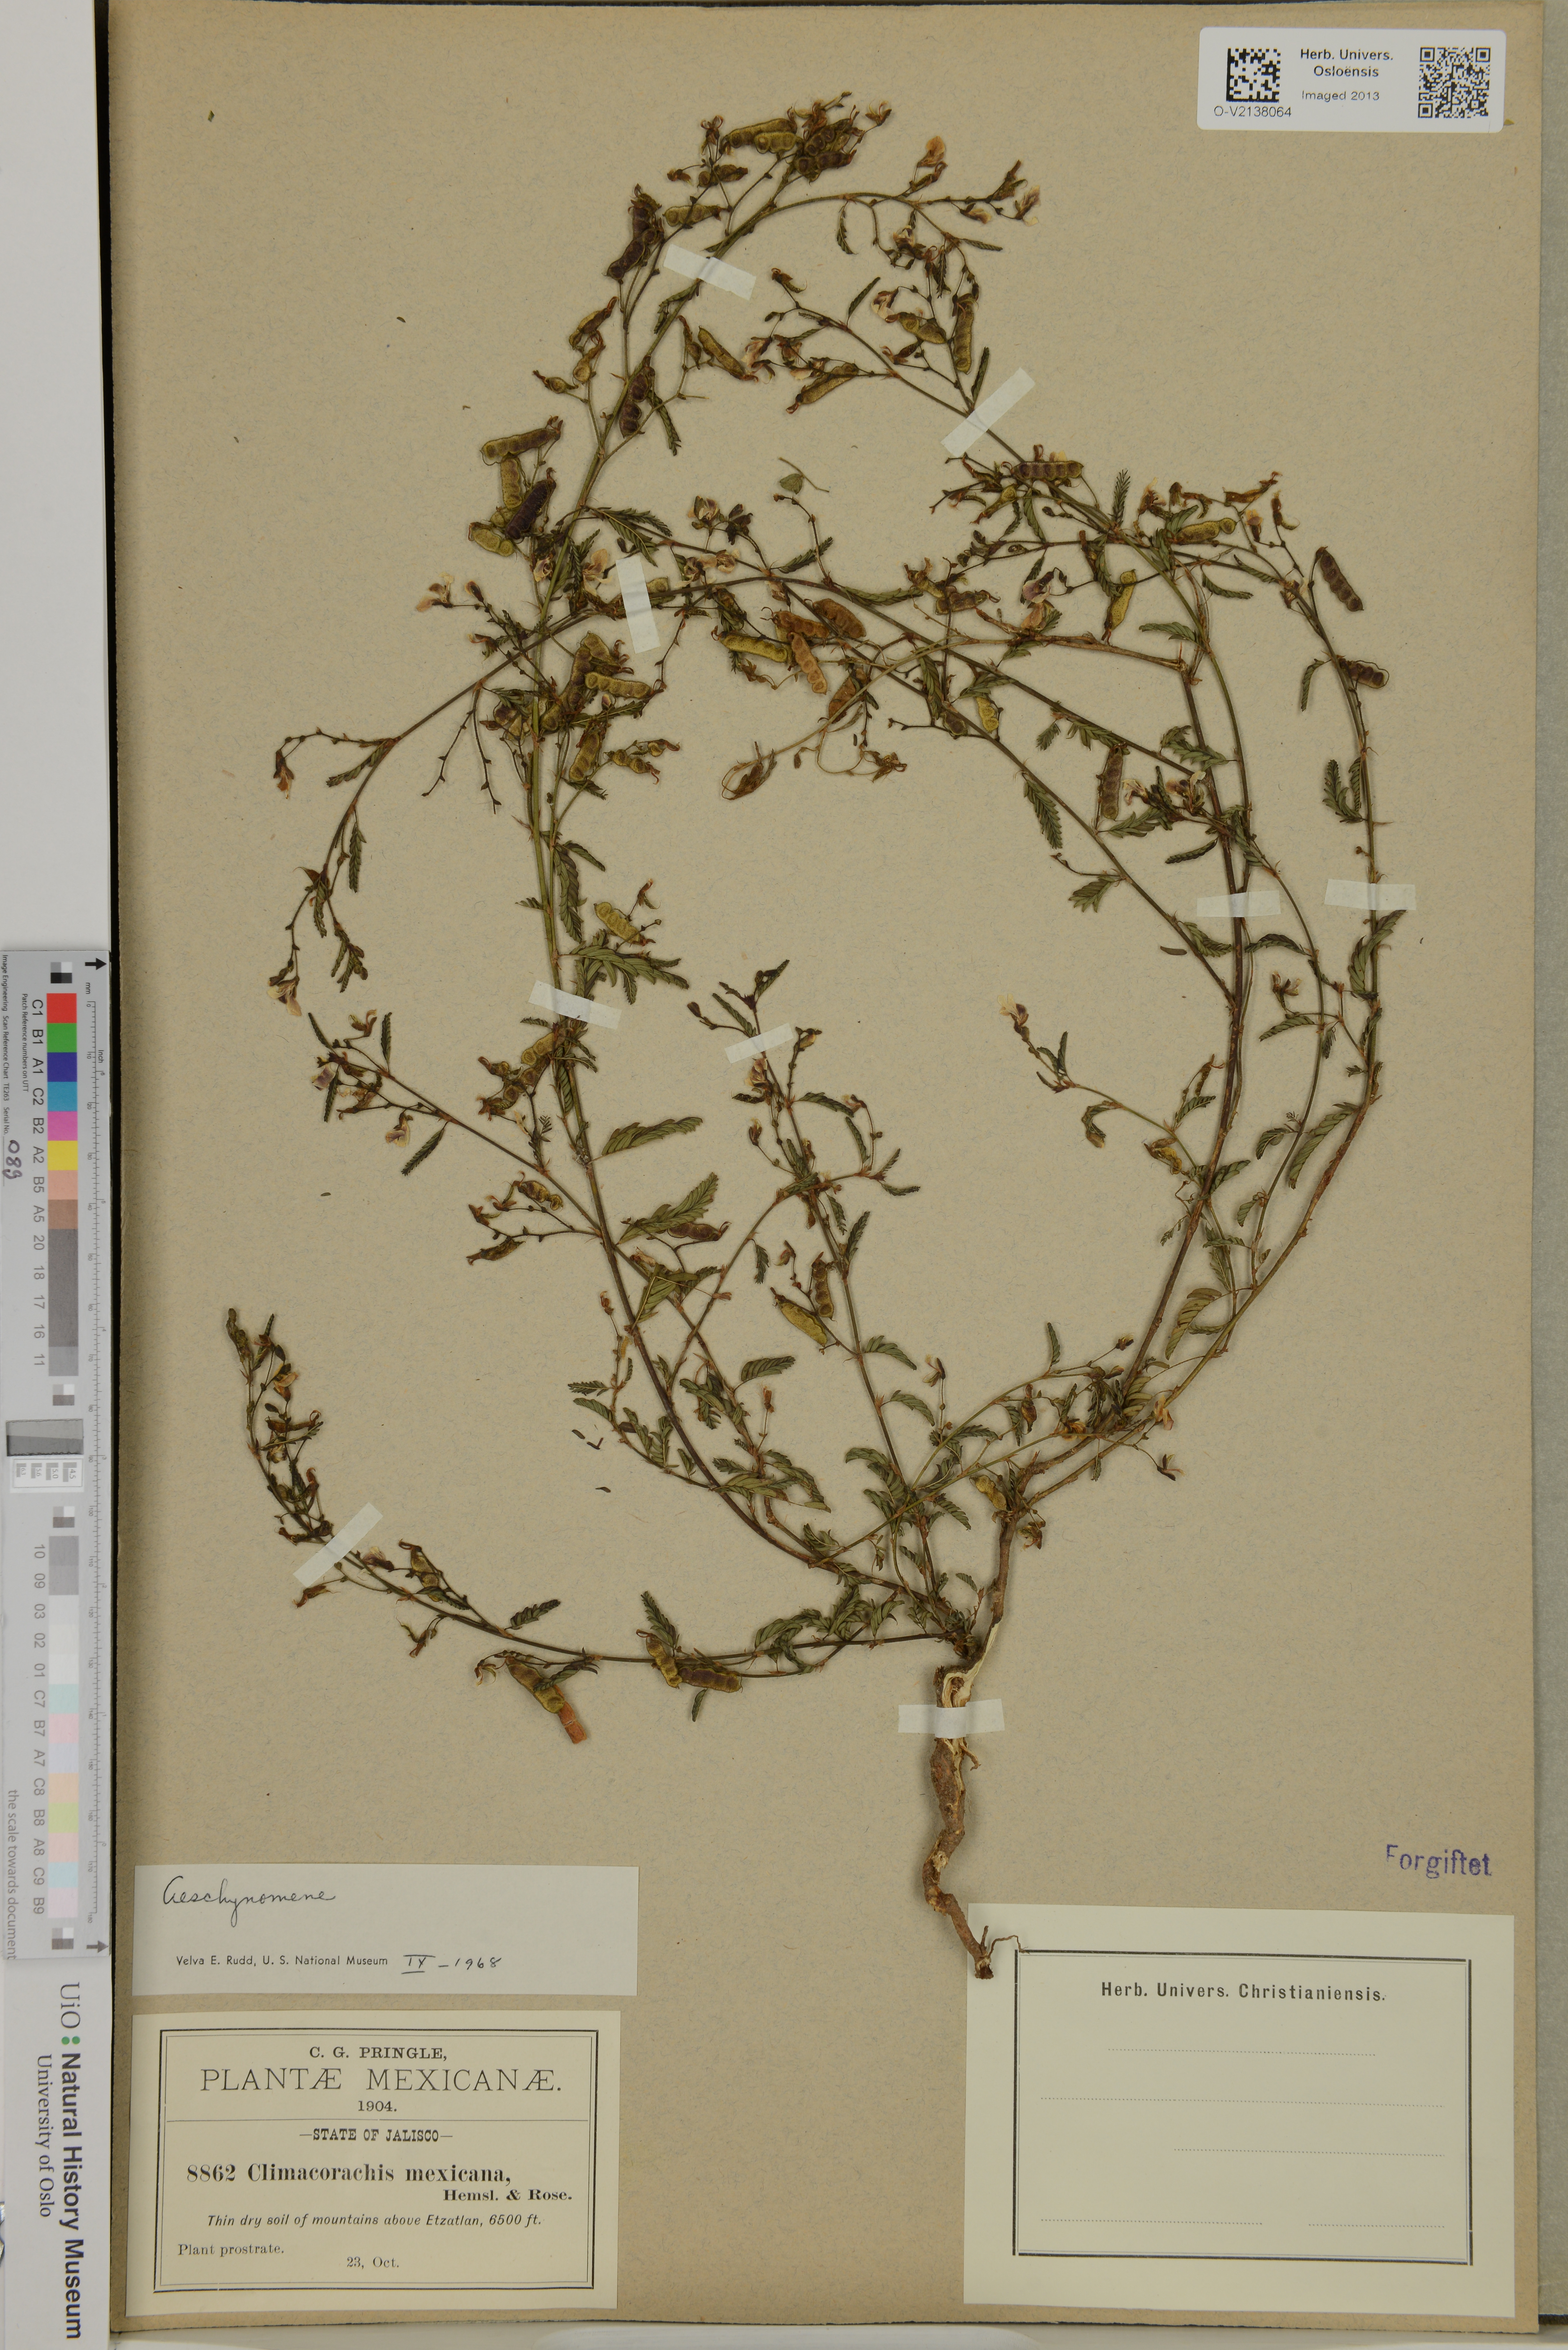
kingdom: Plantae
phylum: Tracheophyta
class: Magnoliopsida
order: Fabales
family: Fabaceae
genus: Aeschynomene
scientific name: Aeschynomene mexicana
